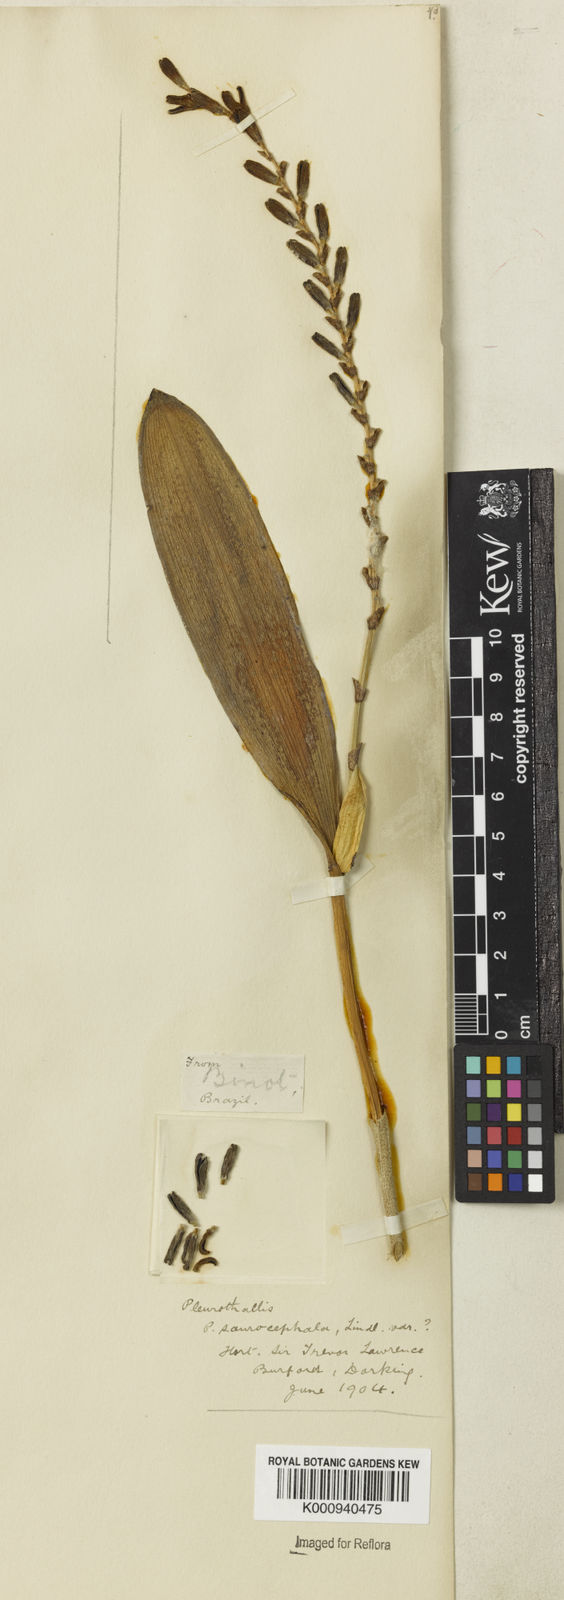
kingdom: Plantae
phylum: Tracheophyta
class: Liliopsida
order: Asparagales
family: Orchidaceae
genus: Acianthera
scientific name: Acianthera saurocephala
